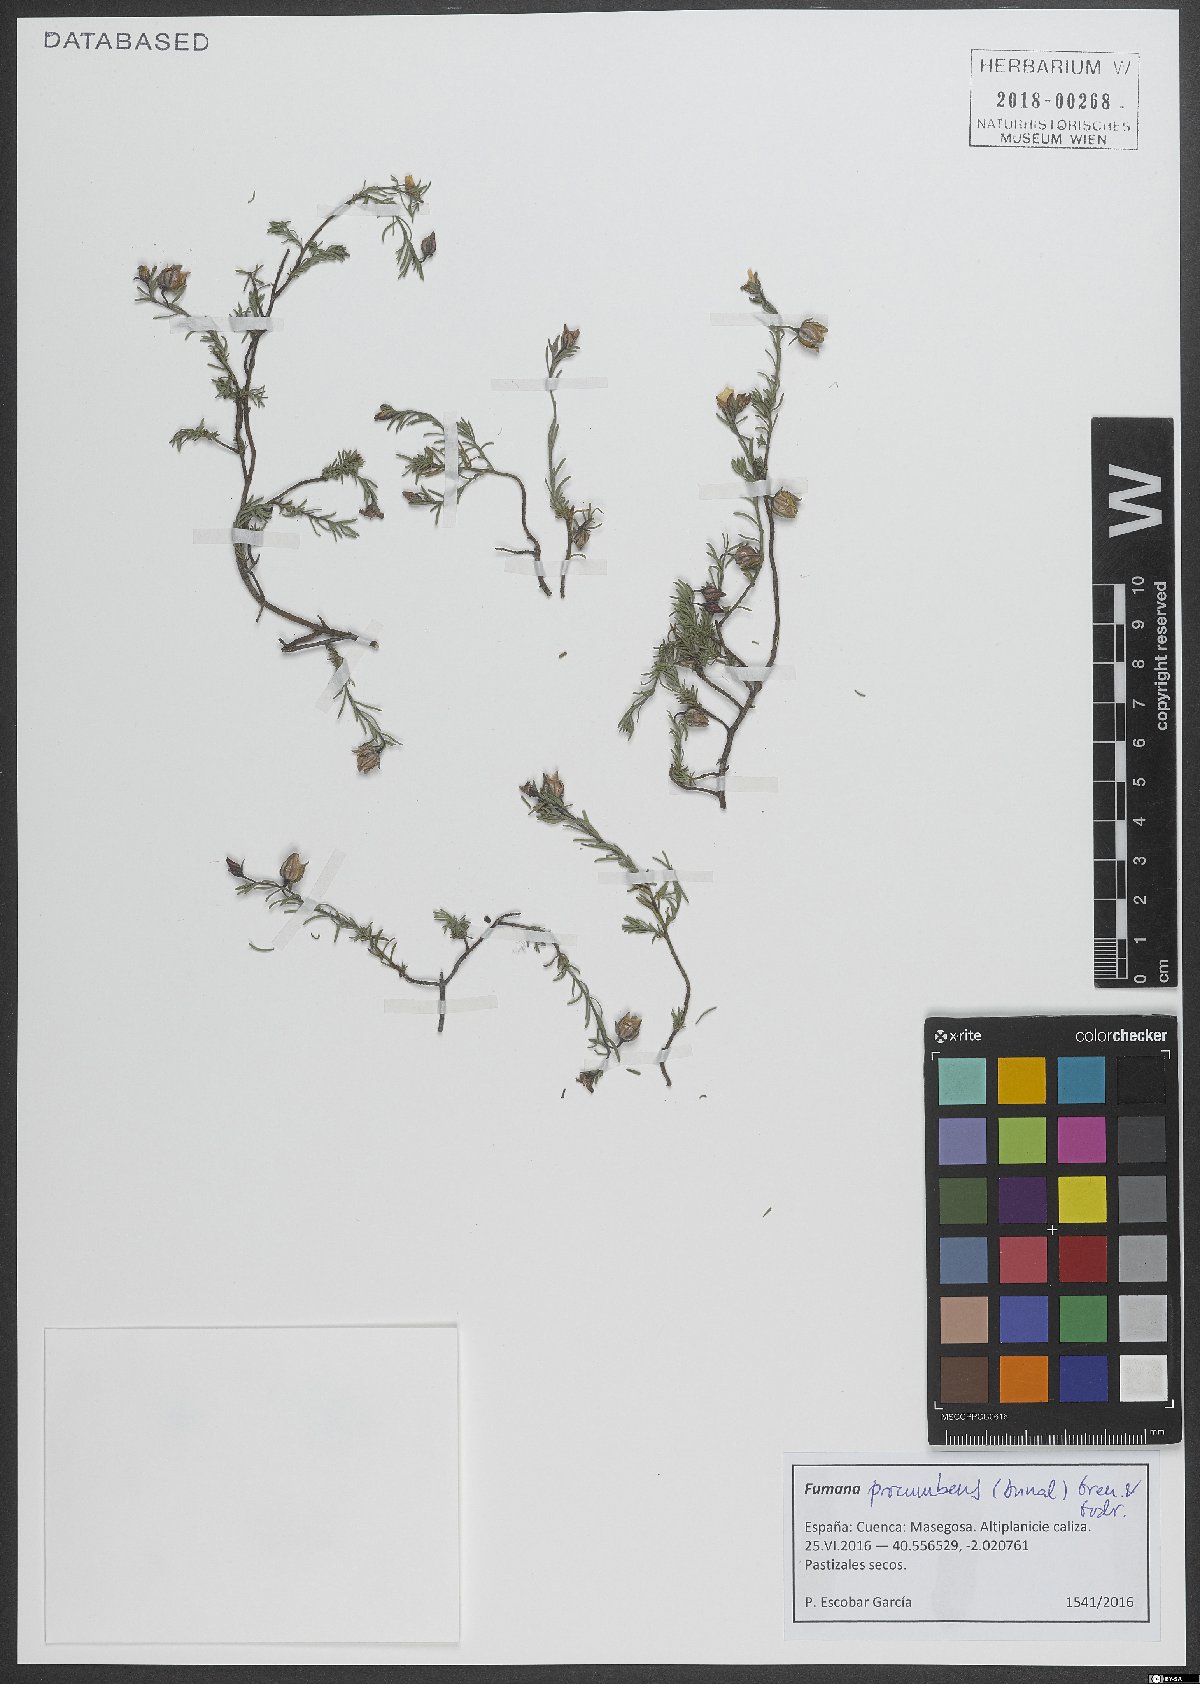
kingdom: Plantae
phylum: Tracheophyta
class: Magnoliopsida
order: Malvales
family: Cistaceae
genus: Fumana
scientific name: Fumana procumbens
